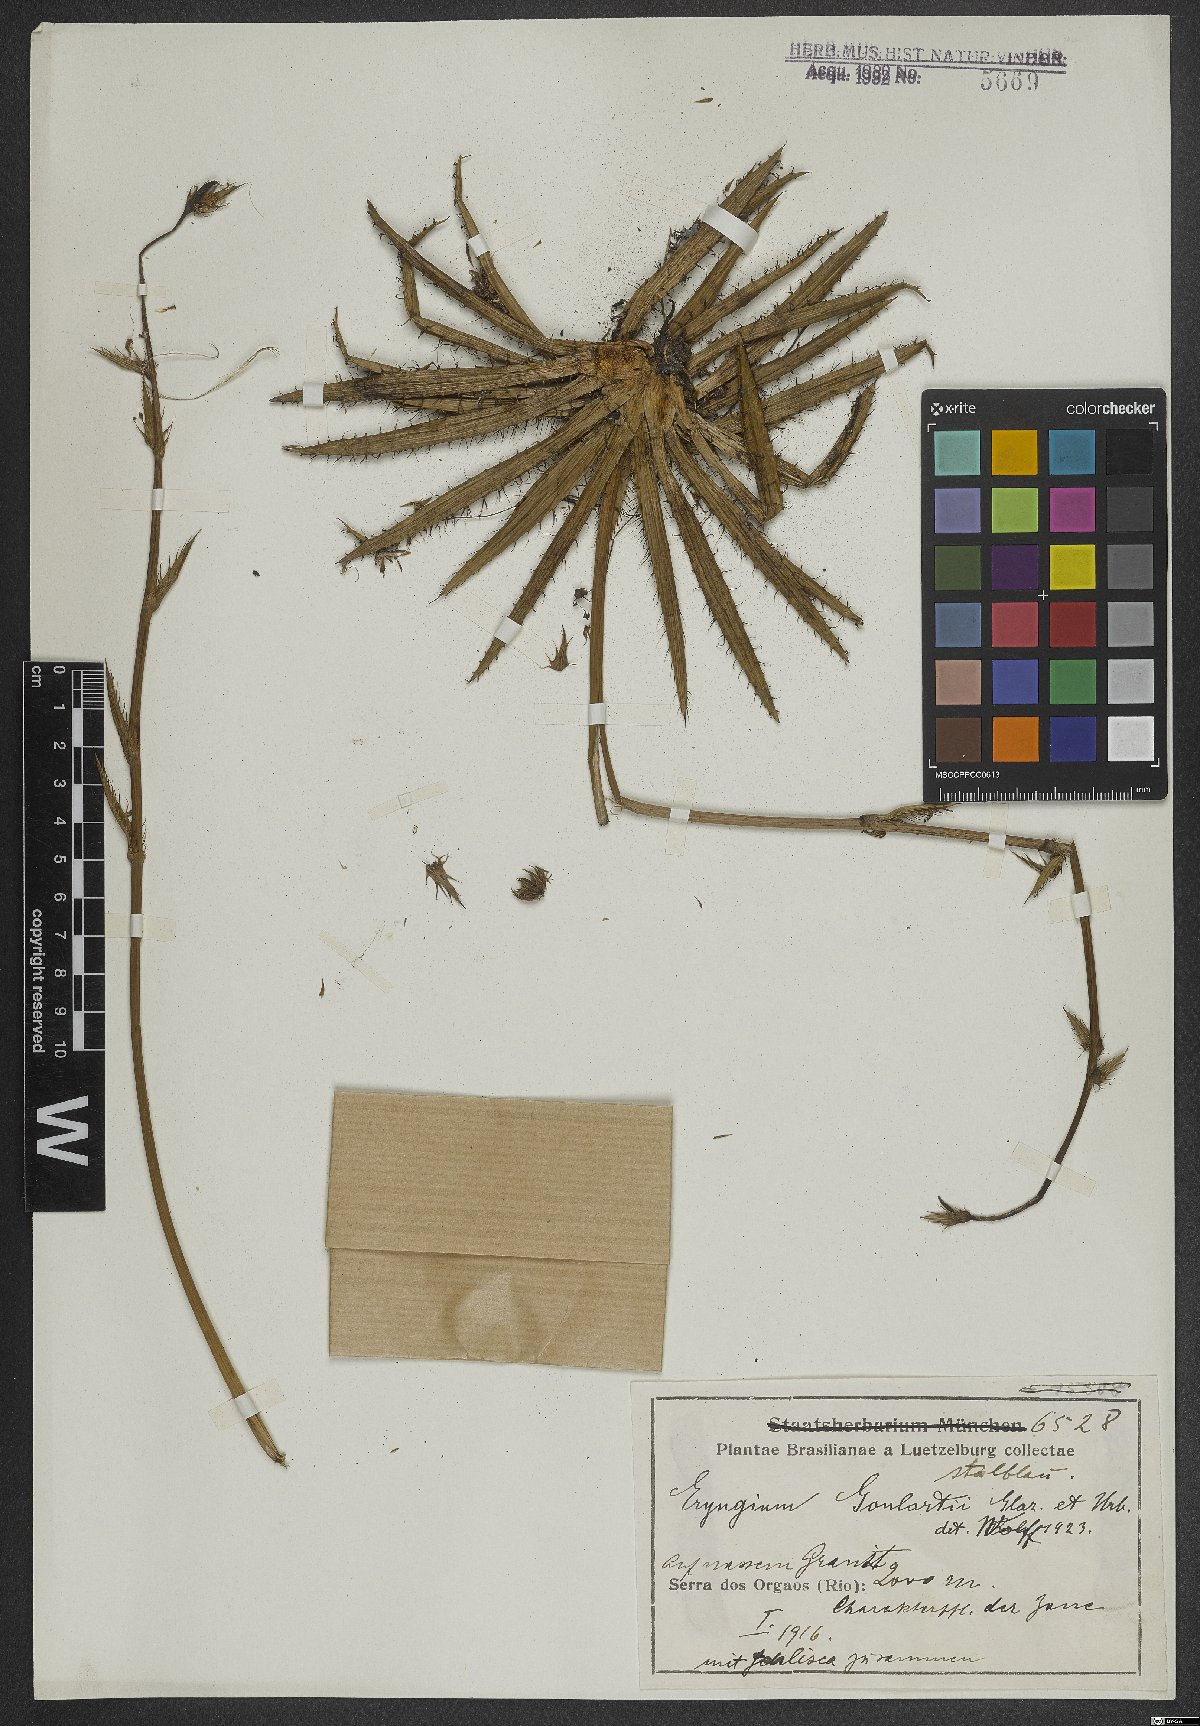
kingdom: Plantae
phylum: Tracheophyta
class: Magnoliopsida
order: Apiales
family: Apiaceae
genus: Eryngium
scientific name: Eryngium goulartii
